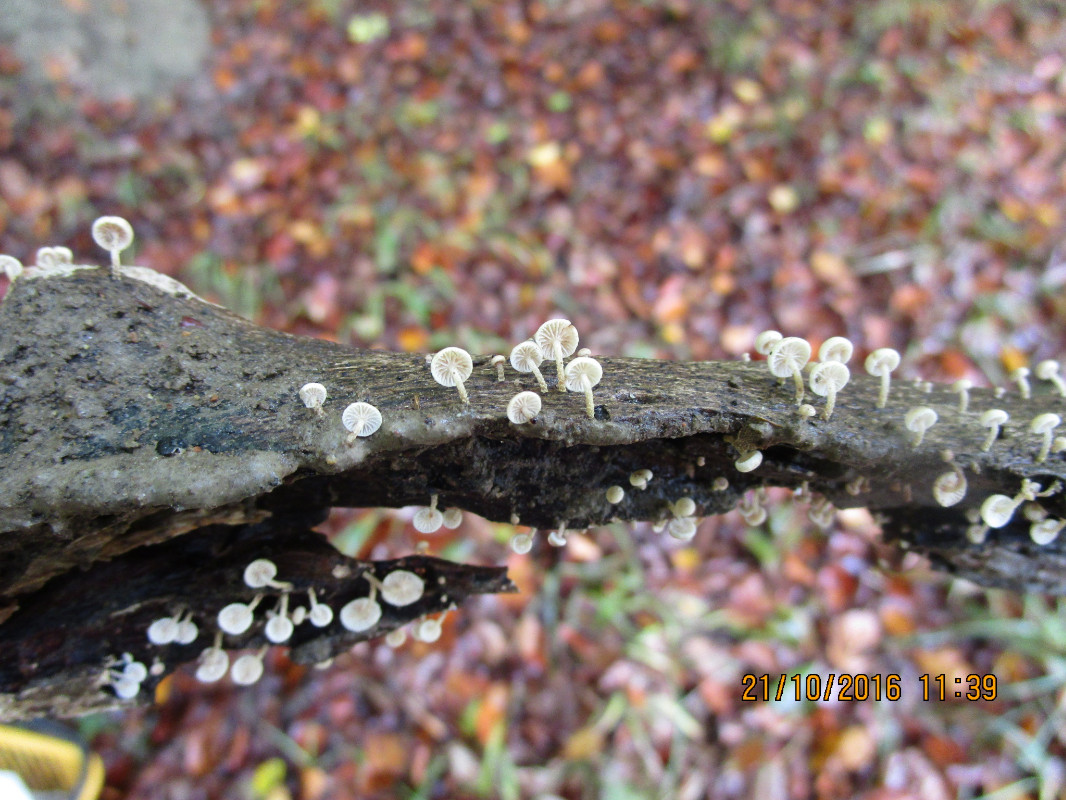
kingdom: Fungi
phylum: Basidiomycota
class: Agaricomycetes
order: Agaricales
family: Omphalotaceae
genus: Collybiopsis
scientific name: Collybiopsis ramealis
